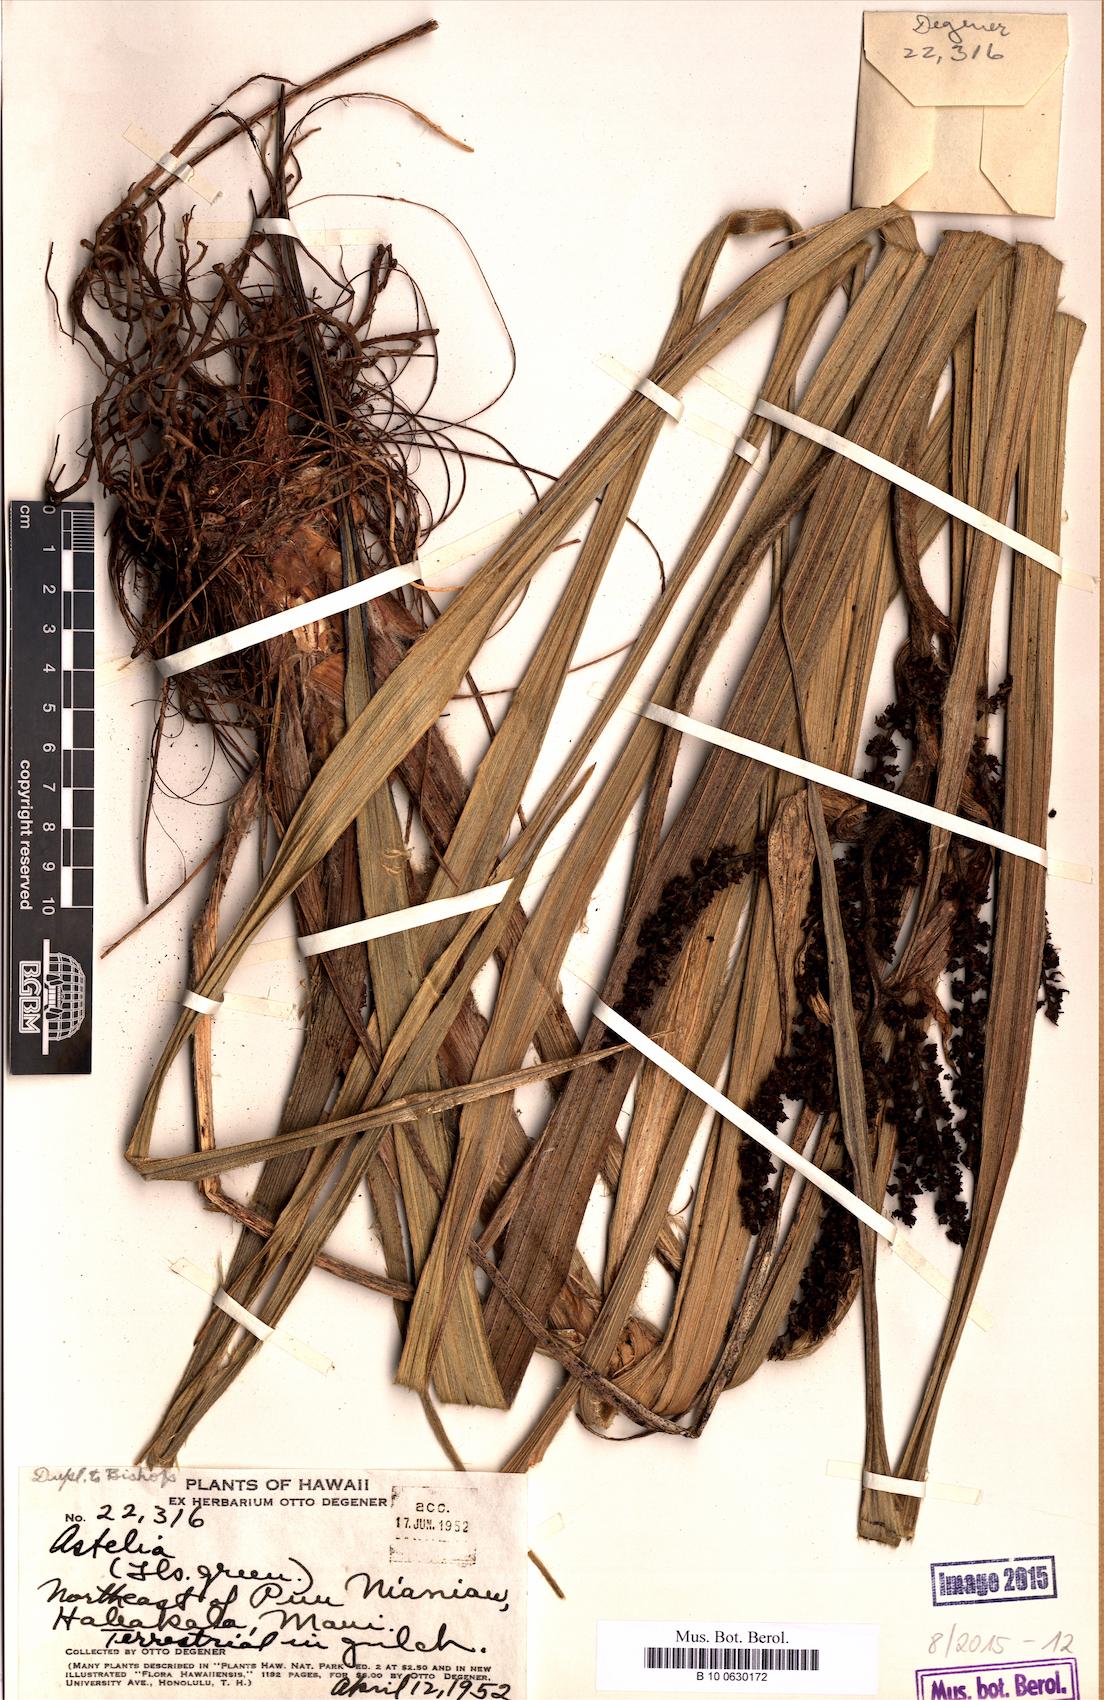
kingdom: Plantae
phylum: Tracheophyta
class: Liliopsida
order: Asparagales
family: Asteliaceae
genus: Astelia
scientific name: Astelia
